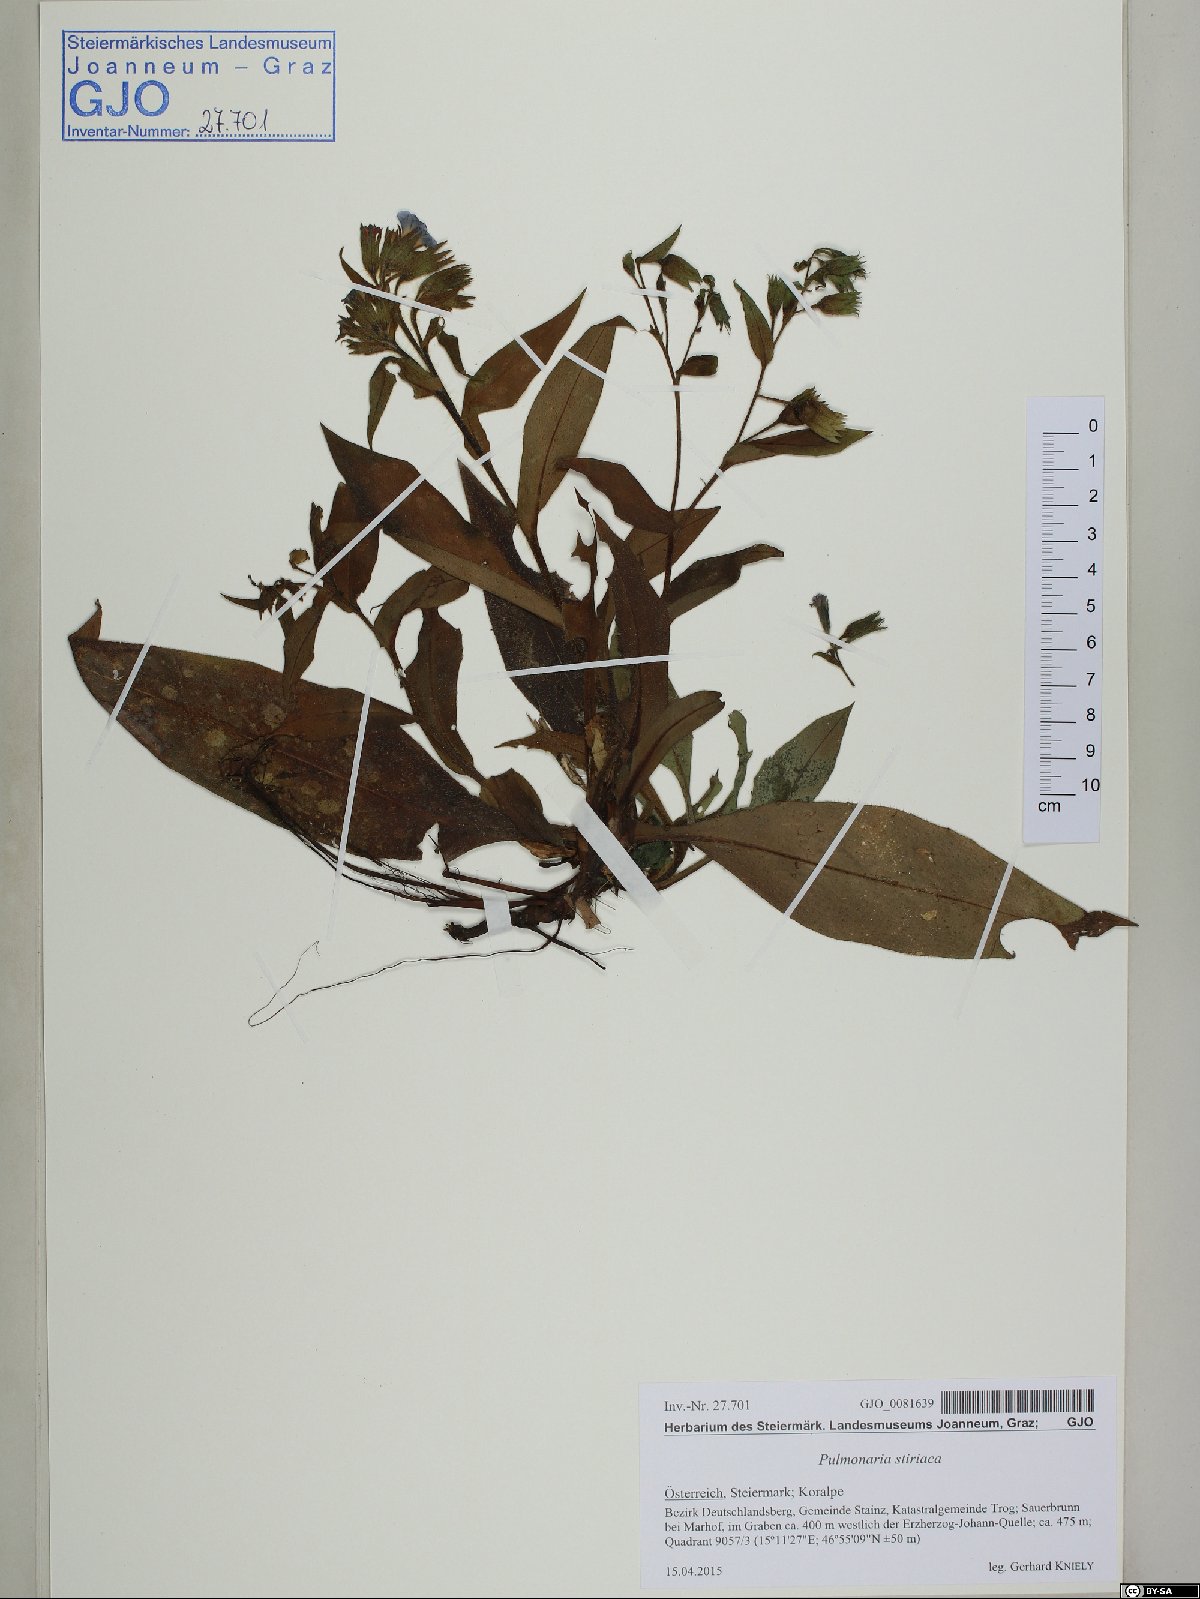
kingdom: Plantae
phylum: Tracheophyta
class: Magnoliopsida
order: Boraginales
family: Boraginaceae
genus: Pulmonaria
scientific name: Pulmonaria stiriaca
